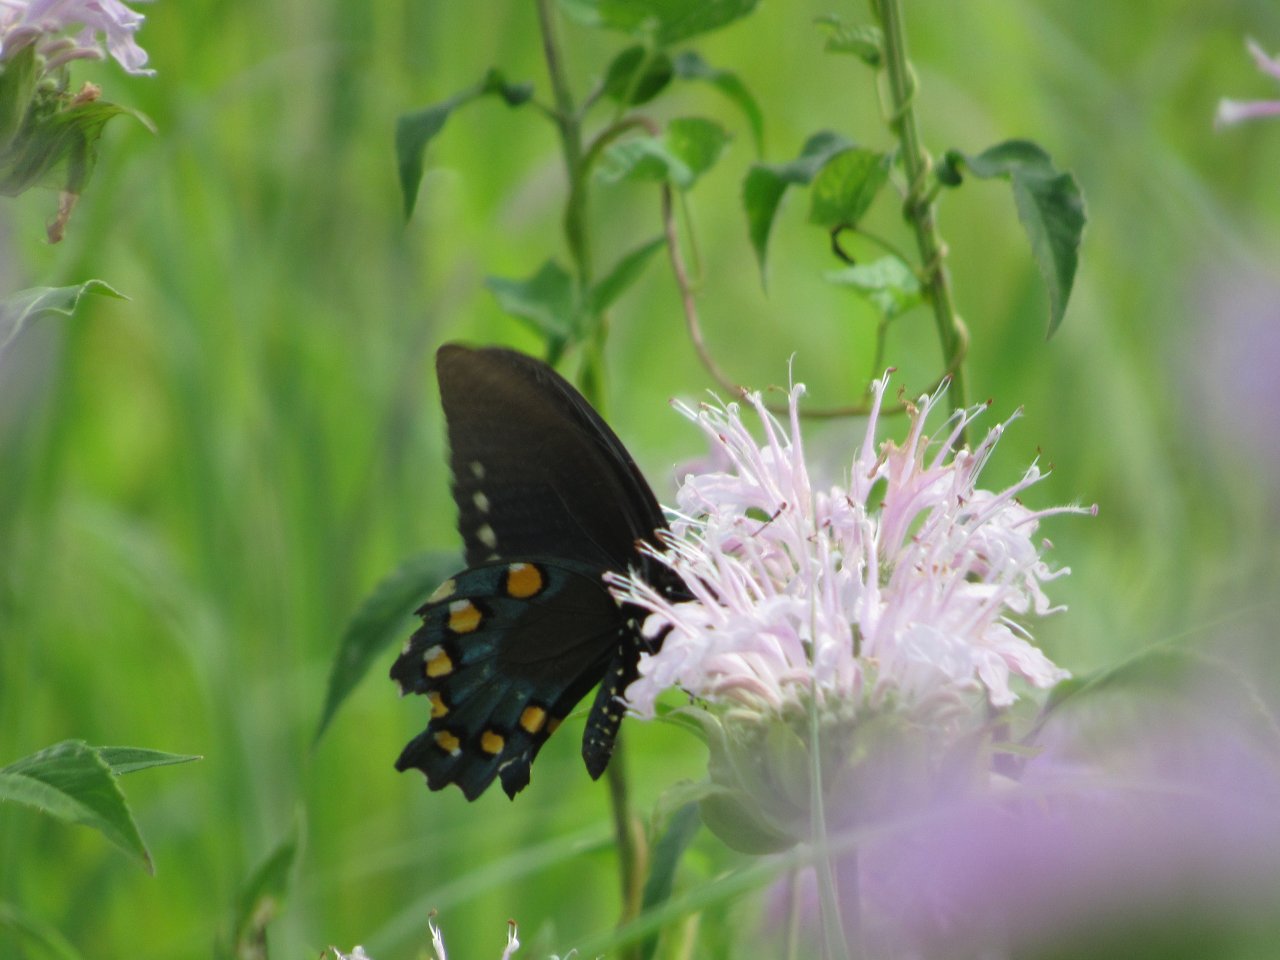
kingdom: Animalia
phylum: Arthropoda
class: Insecta
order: Lepidoptera
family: Papilionidae
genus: Battus
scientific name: Battus philenor
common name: Pipevine Swallowtail
